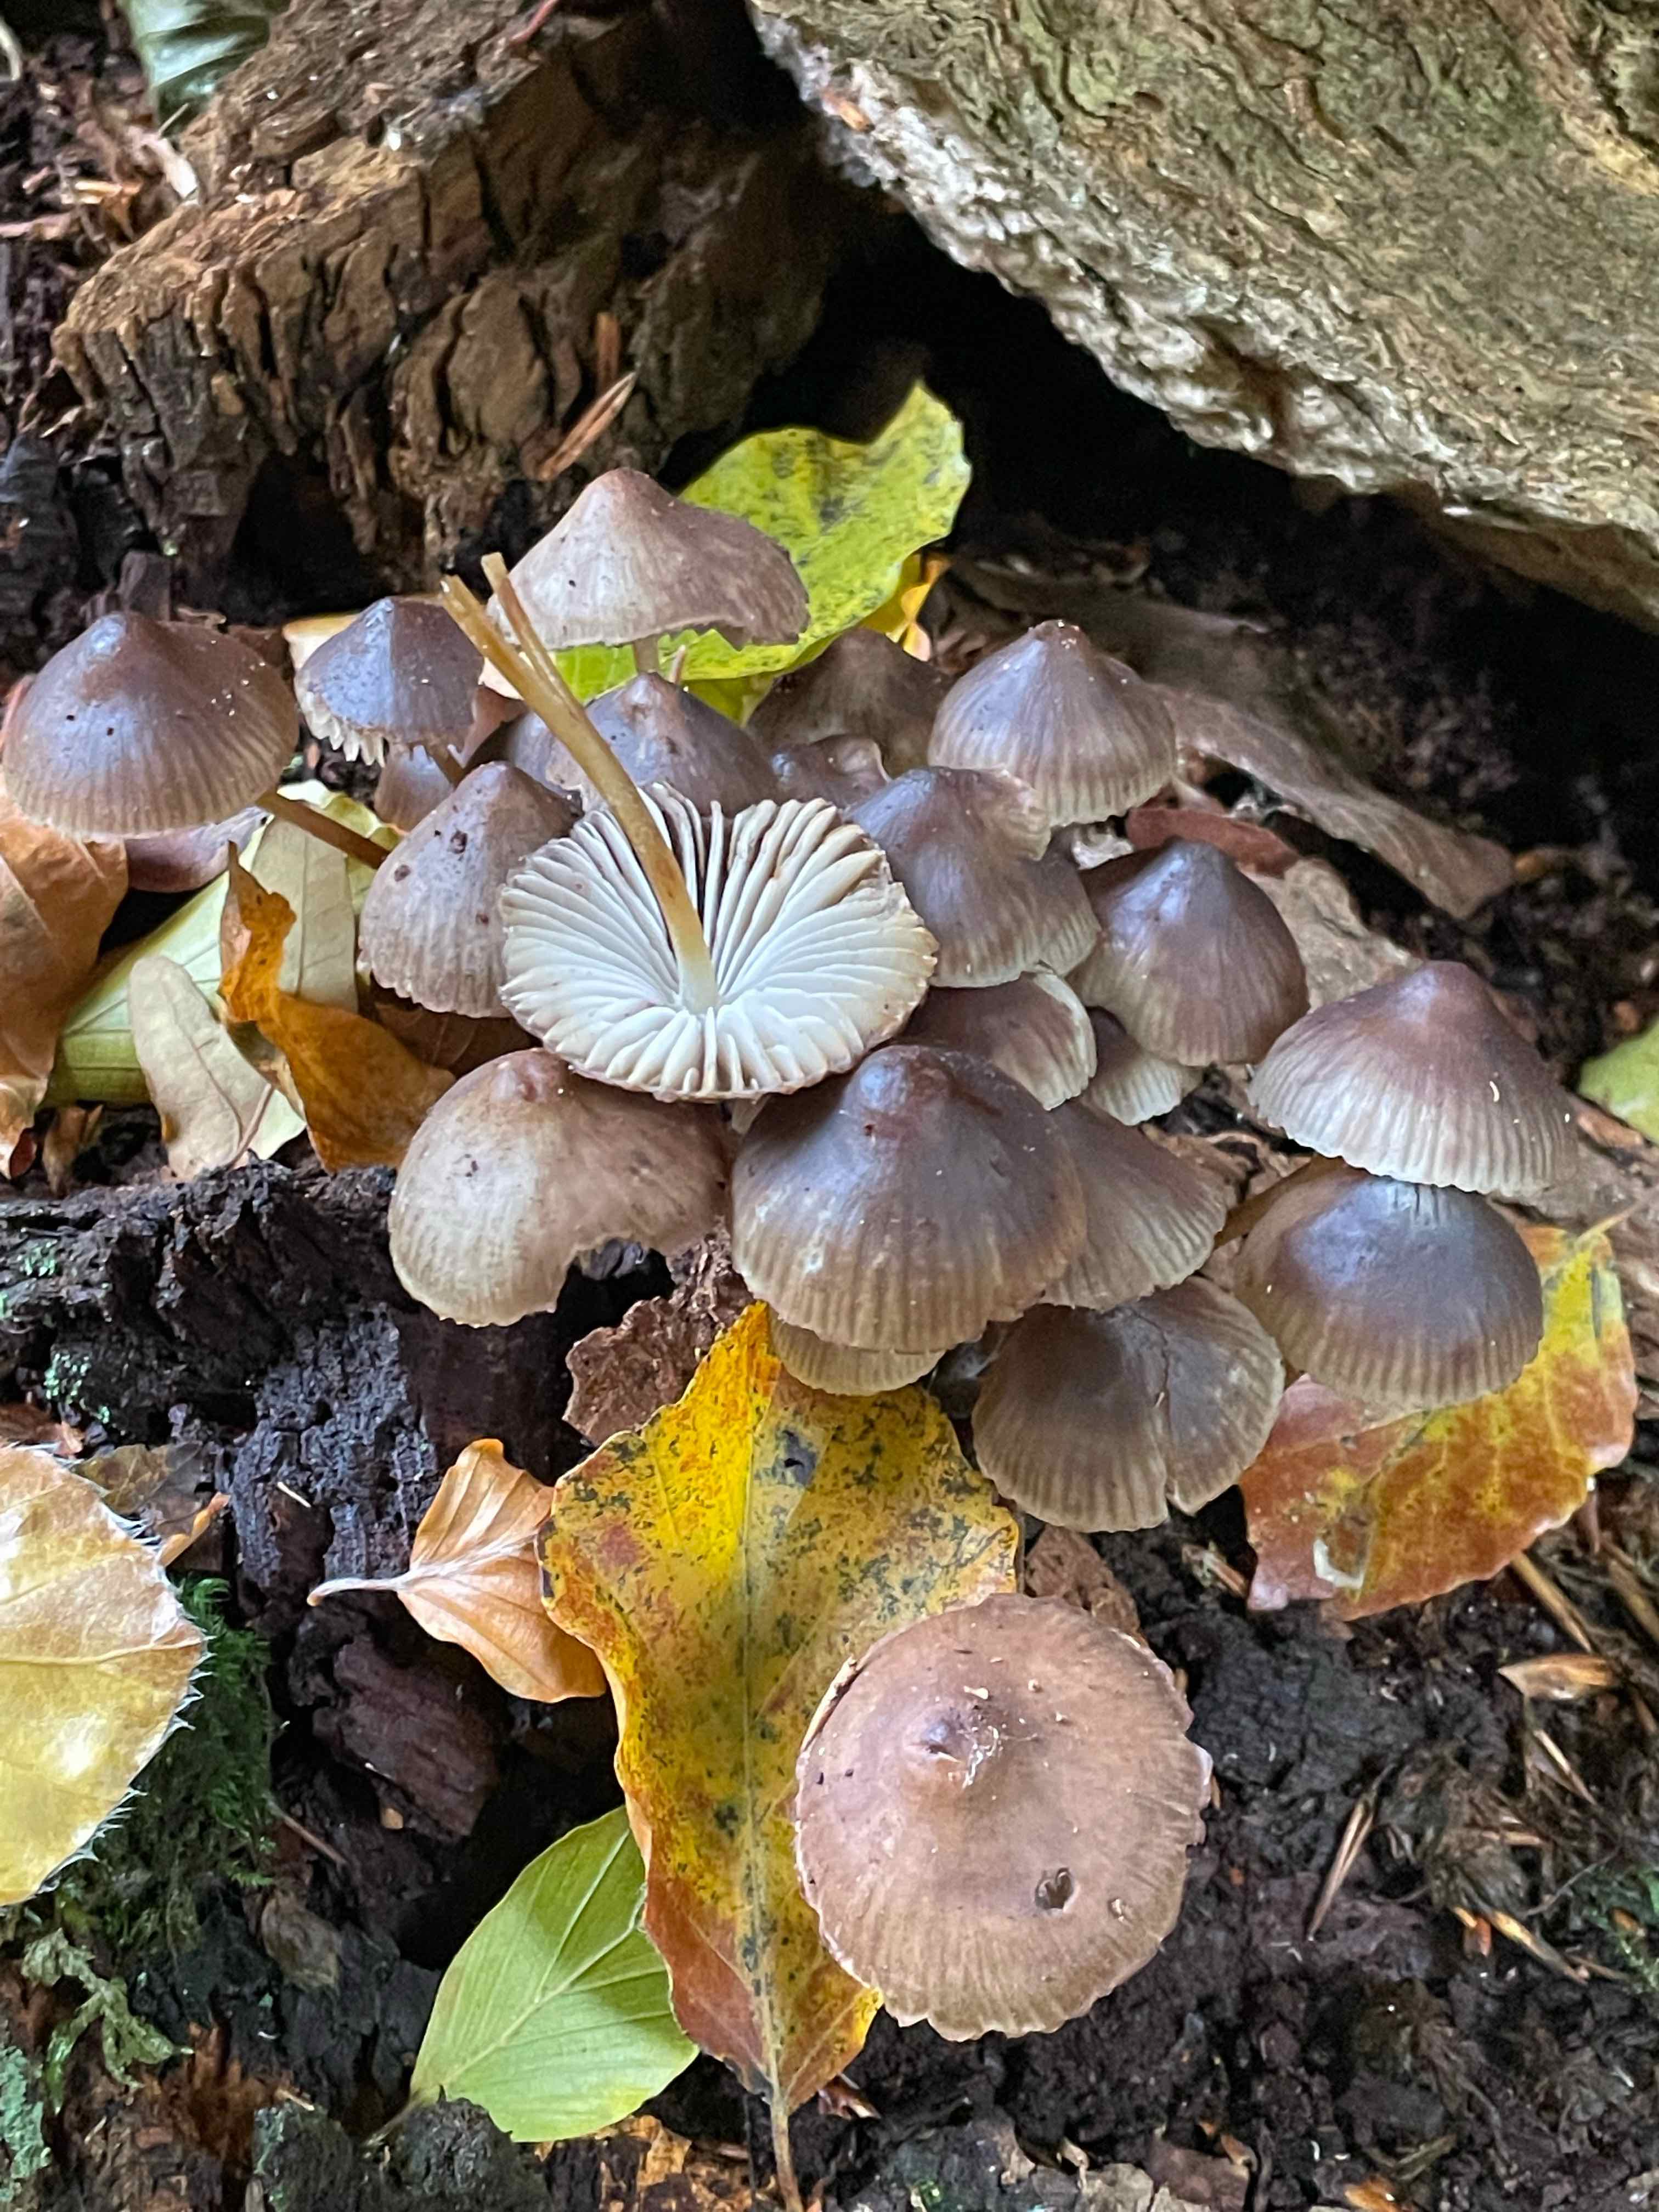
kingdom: Fungi
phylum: Basidiomycota
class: Agaricomycetes
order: Agaricales
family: Mycenaceae
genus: Mycena
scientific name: Mycena inclinata
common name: nikkende huesvamp
